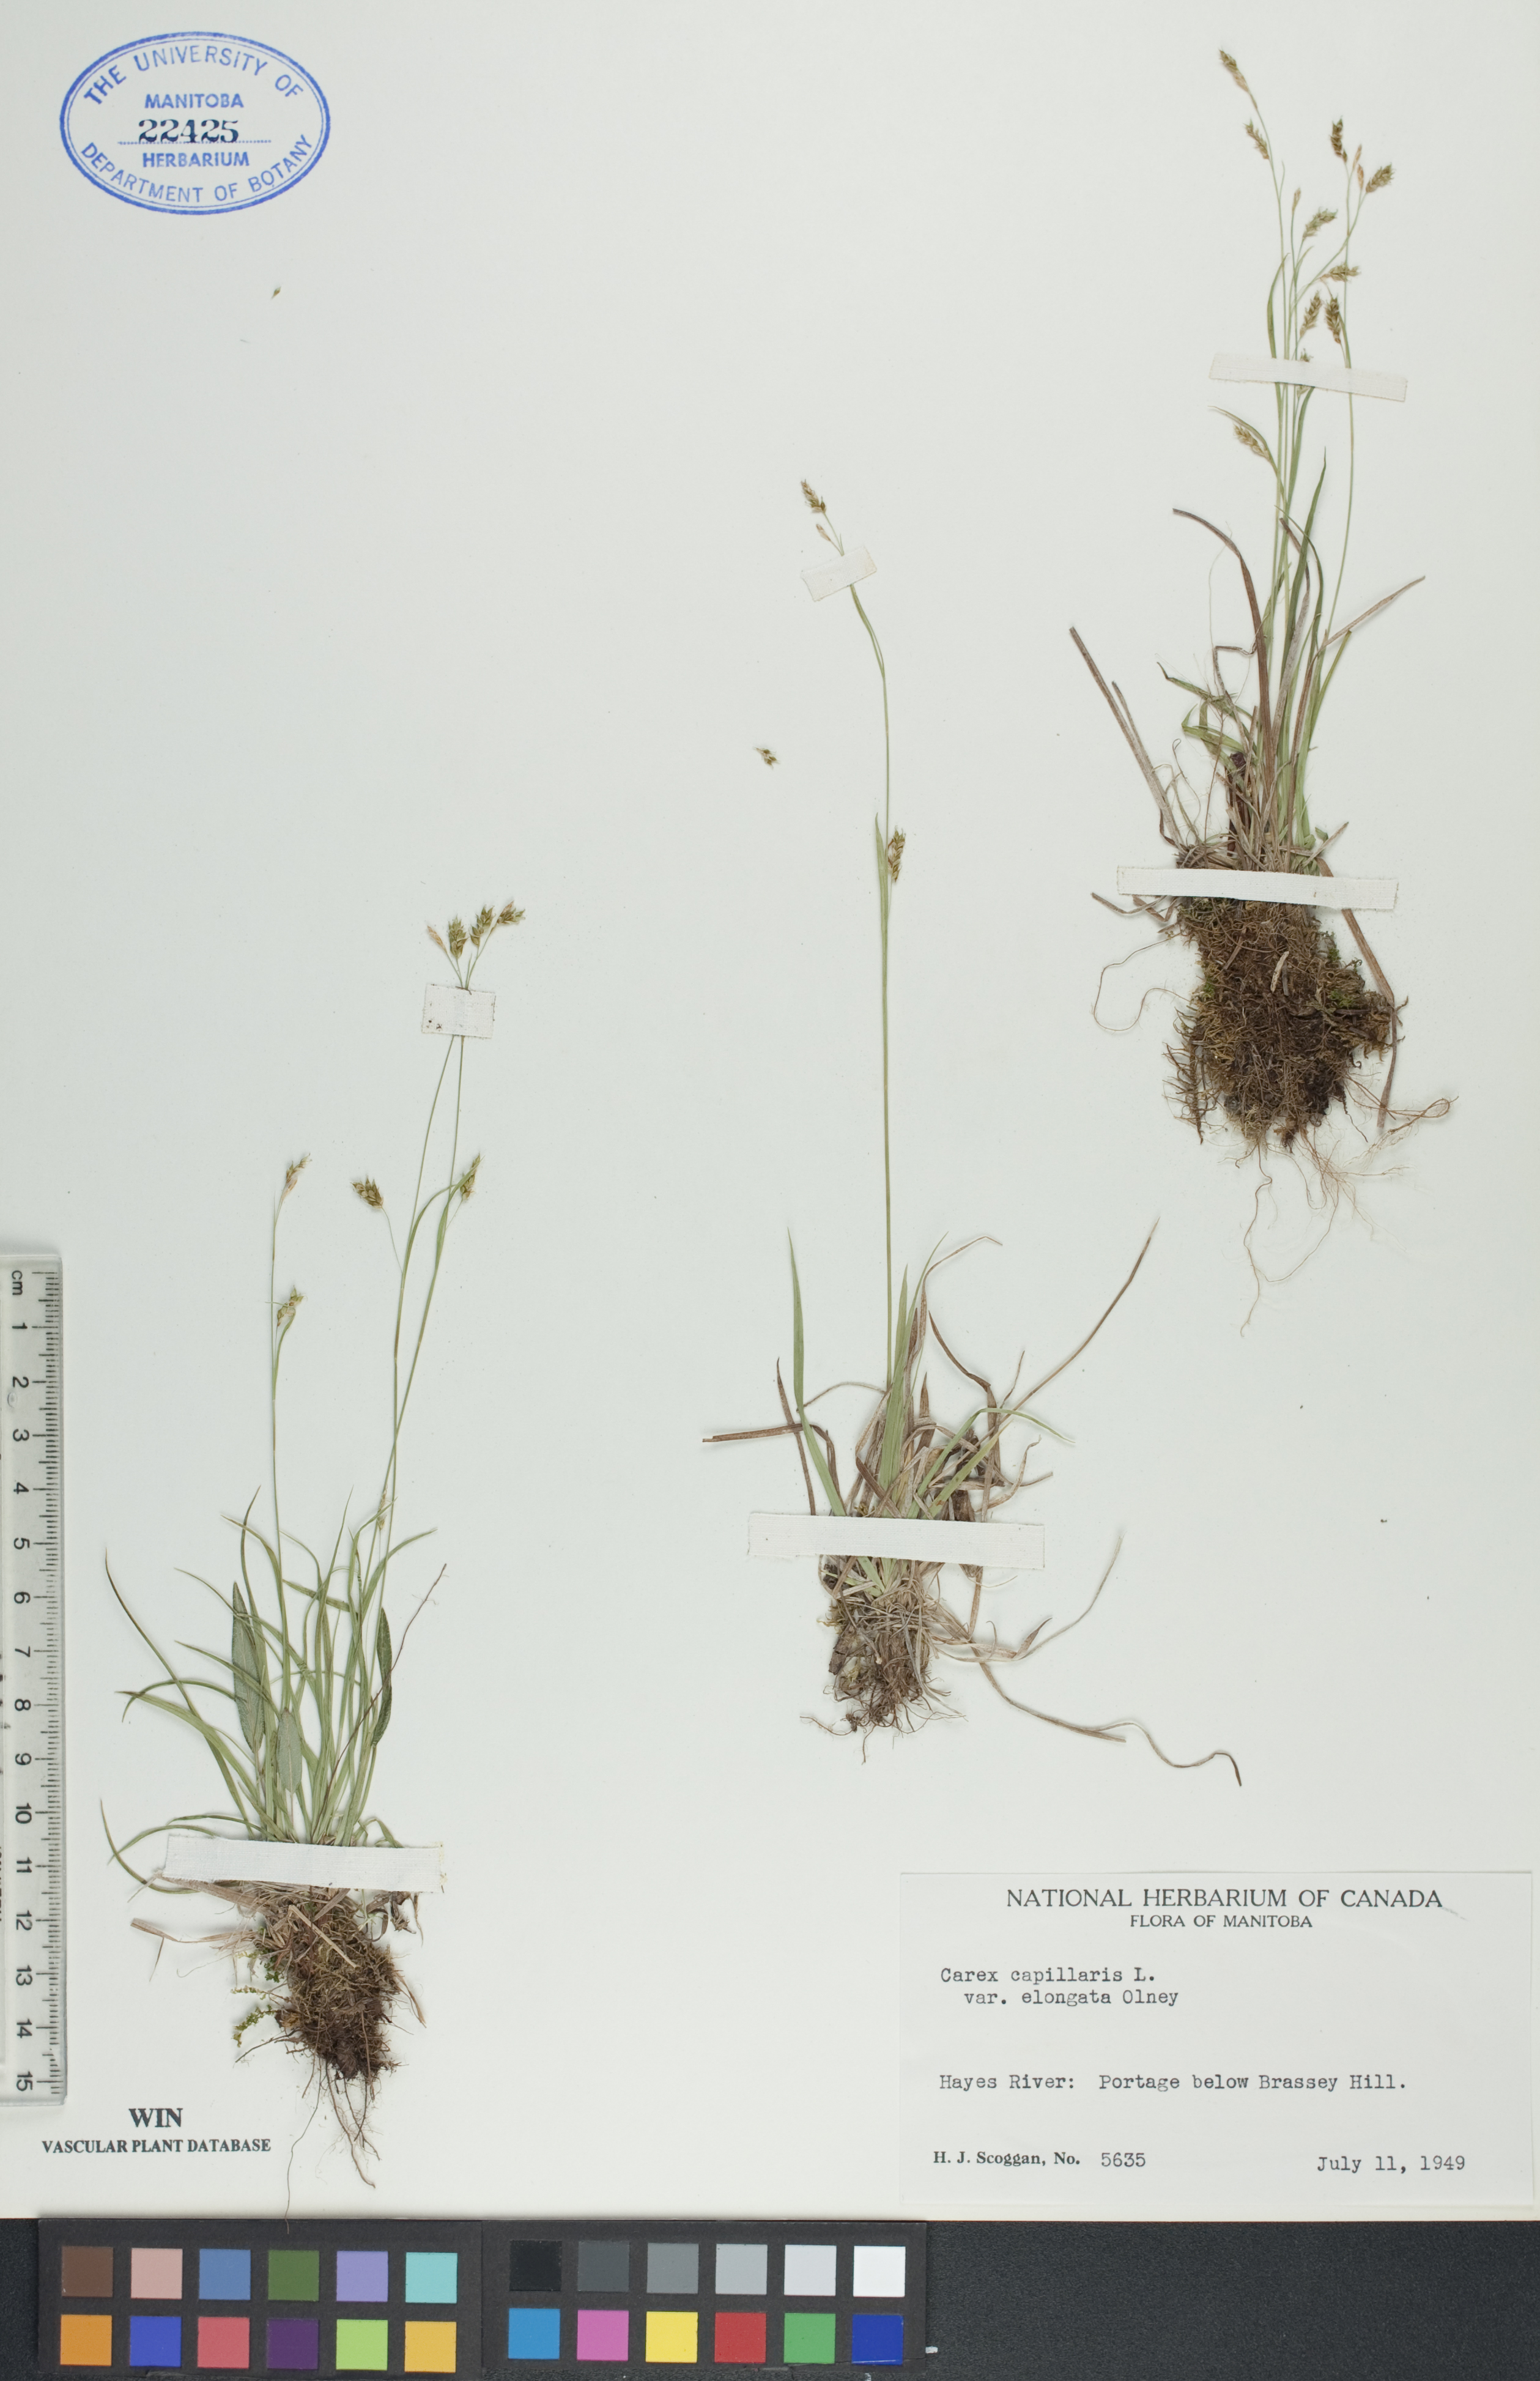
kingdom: Plantae
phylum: Tracheophyta
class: Liliopsida
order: Poales
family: Cyperaceae
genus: Carex
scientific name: Carex capillaris
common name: Hair sedge
